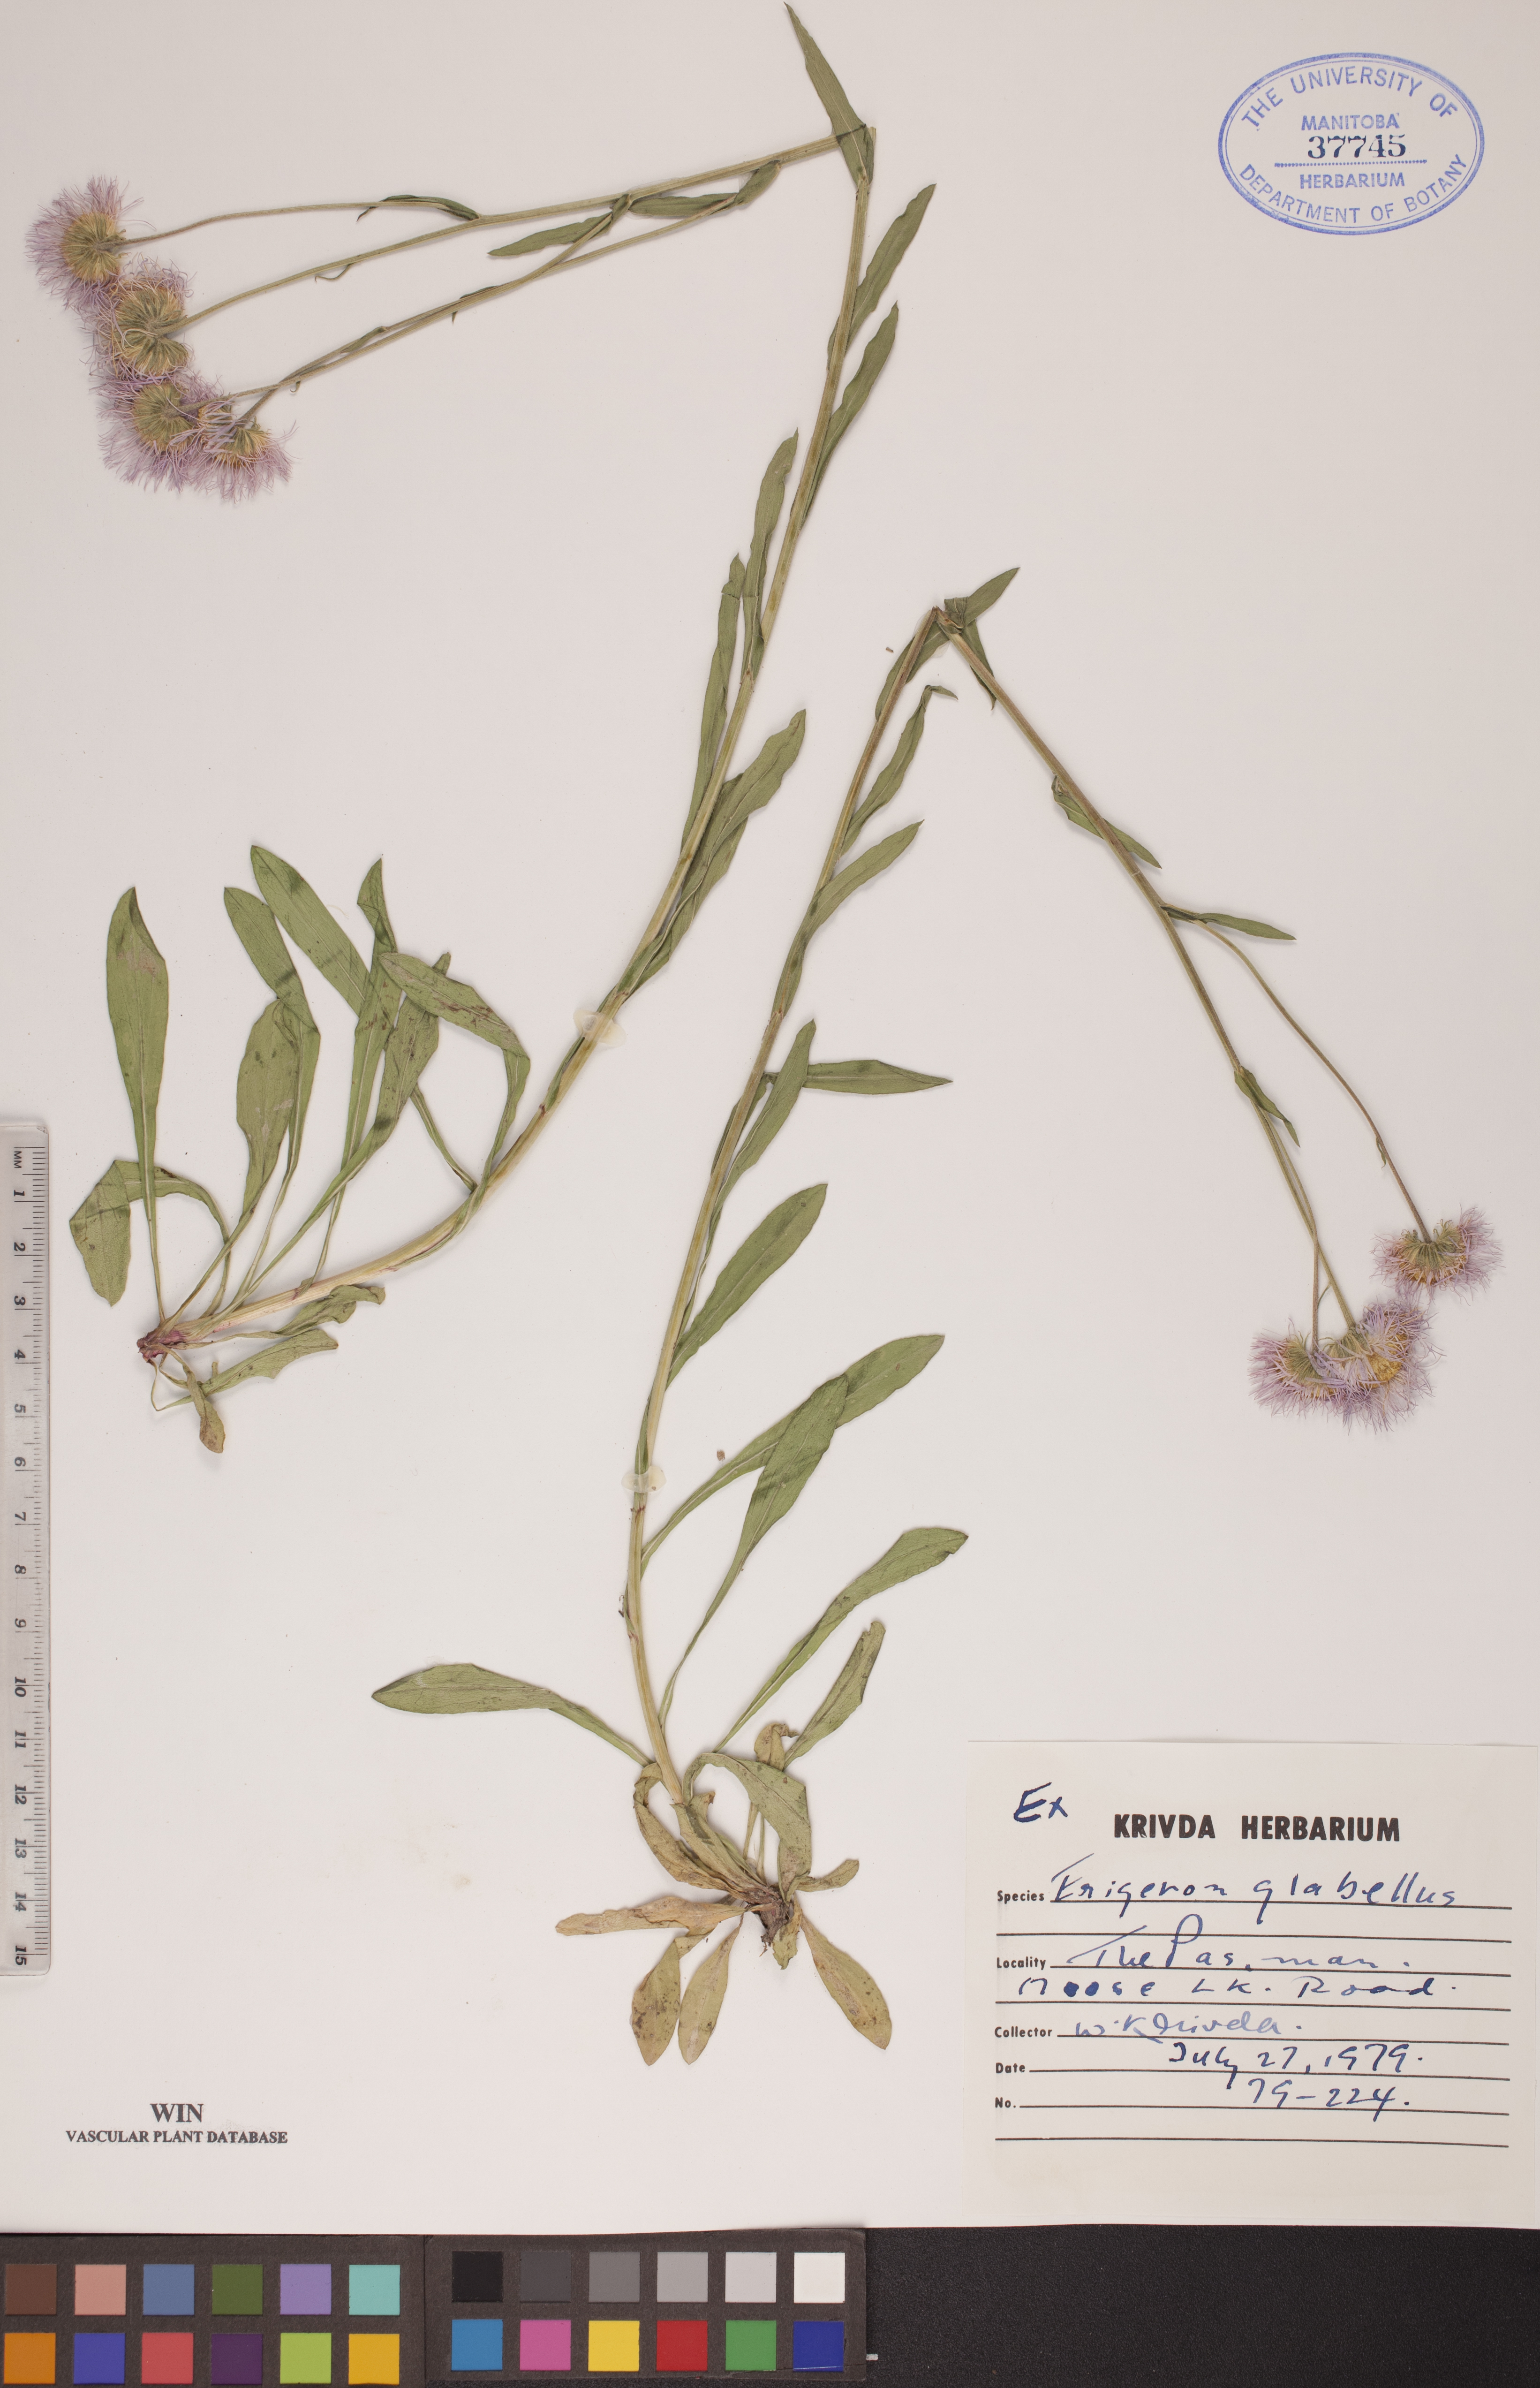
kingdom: Plantae
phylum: Tracheophyta
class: Magnoliopsida
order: Asterales
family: Asteraceae
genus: Erigeron
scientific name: Erigeron glabellus
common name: Smooth fleabane
